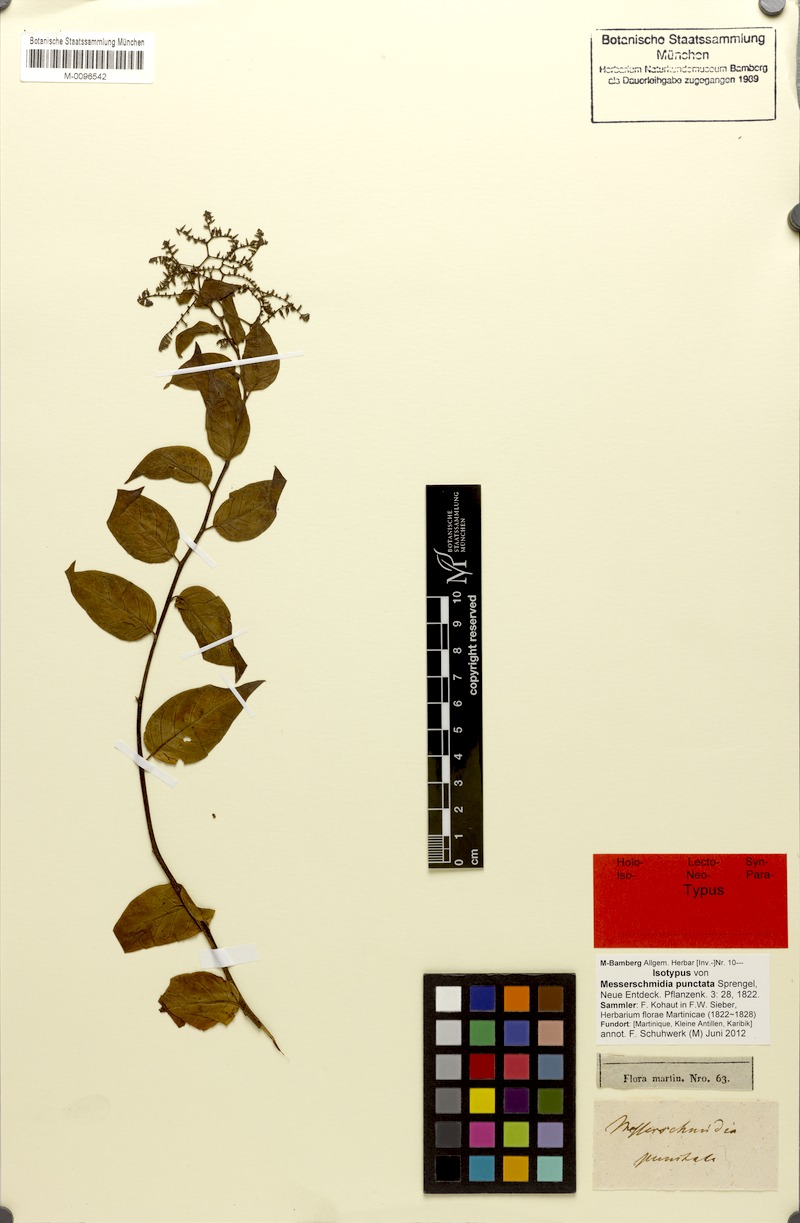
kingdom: Plantae
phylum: Tracheophyta
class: Magnoliopsida
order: Boraginales
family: Heliotropiaceae
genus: Myriopus
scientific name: Myriopus psilostachya
